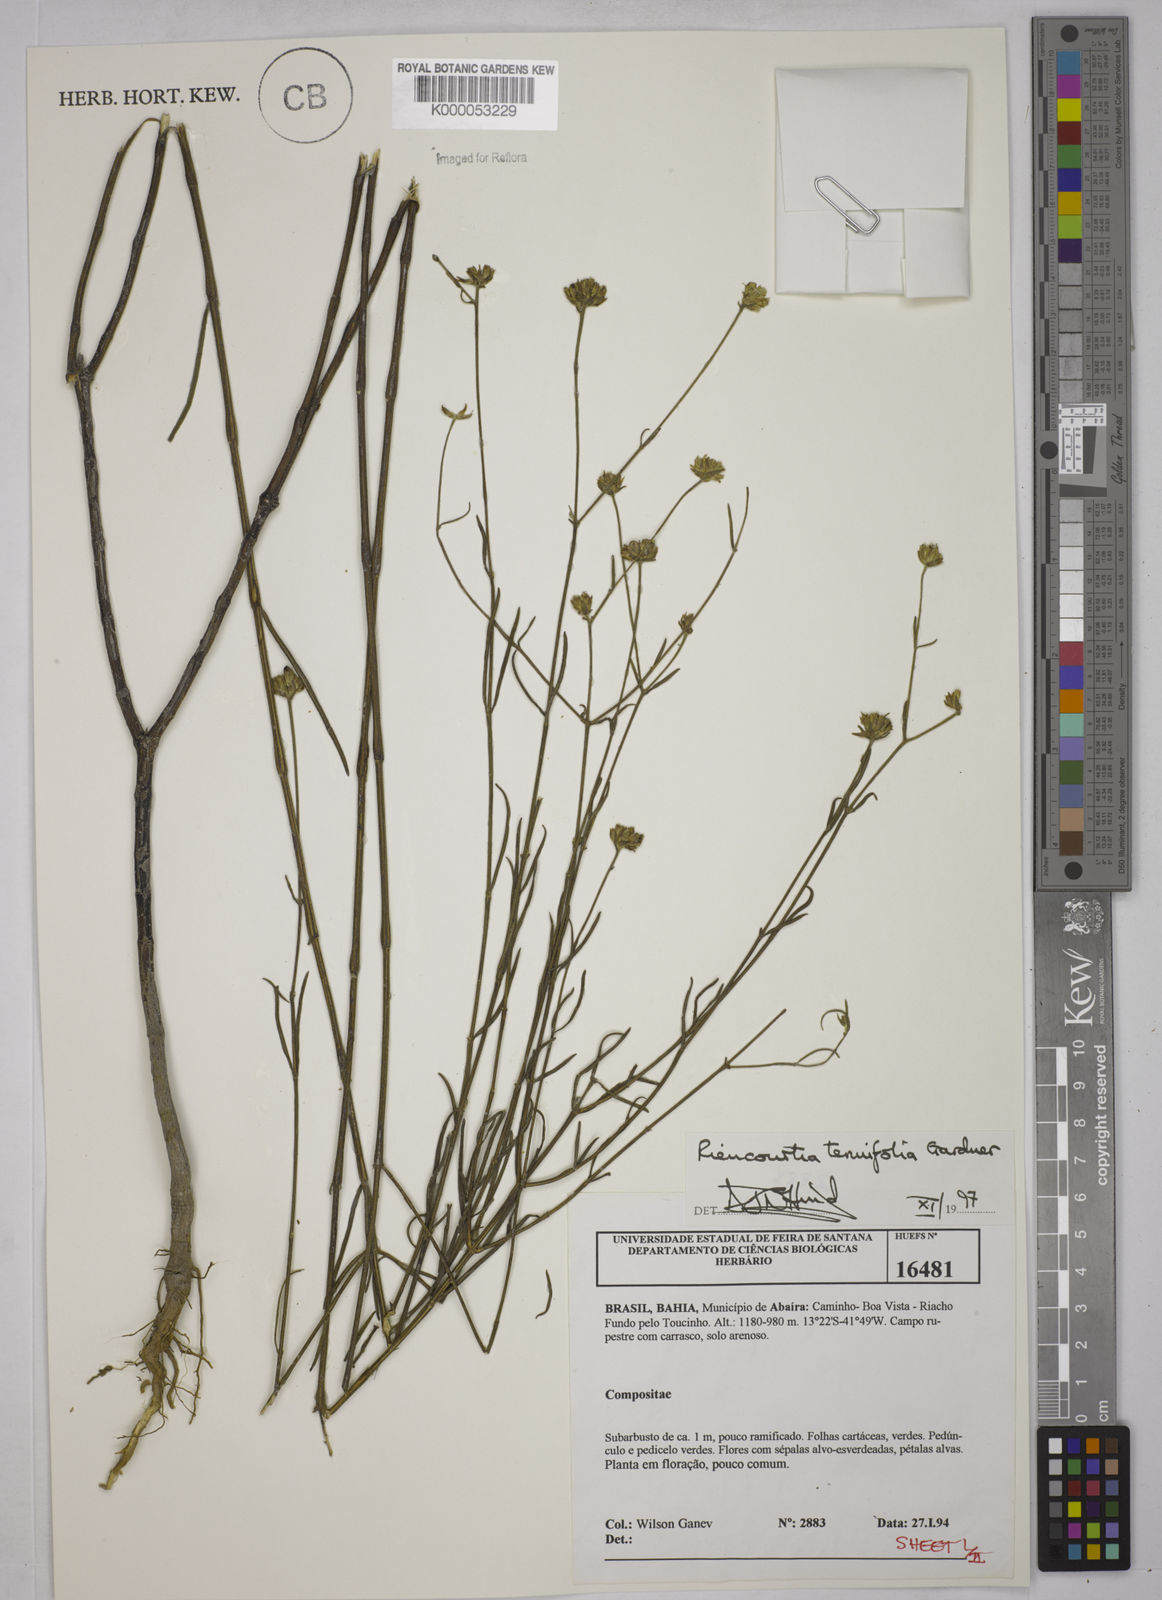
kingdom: Plantae
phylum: Tracheophyta
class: Magnoliopsida
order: Asterales
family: Asteraceae
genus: Riencourtia
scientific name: Riencourtia tenuifolia
